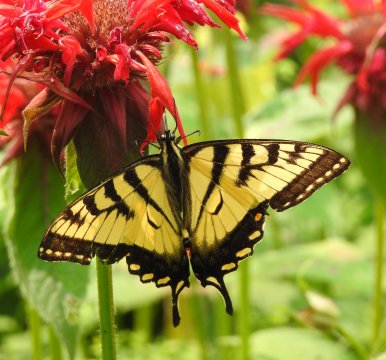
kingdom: Animalia
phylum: Arthropoda
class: Insecta
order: Lepidoptera
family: Papilionidae
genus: Pterourus
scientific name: Pterourus canadensis
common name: Canadian Tiger Swallowtail
